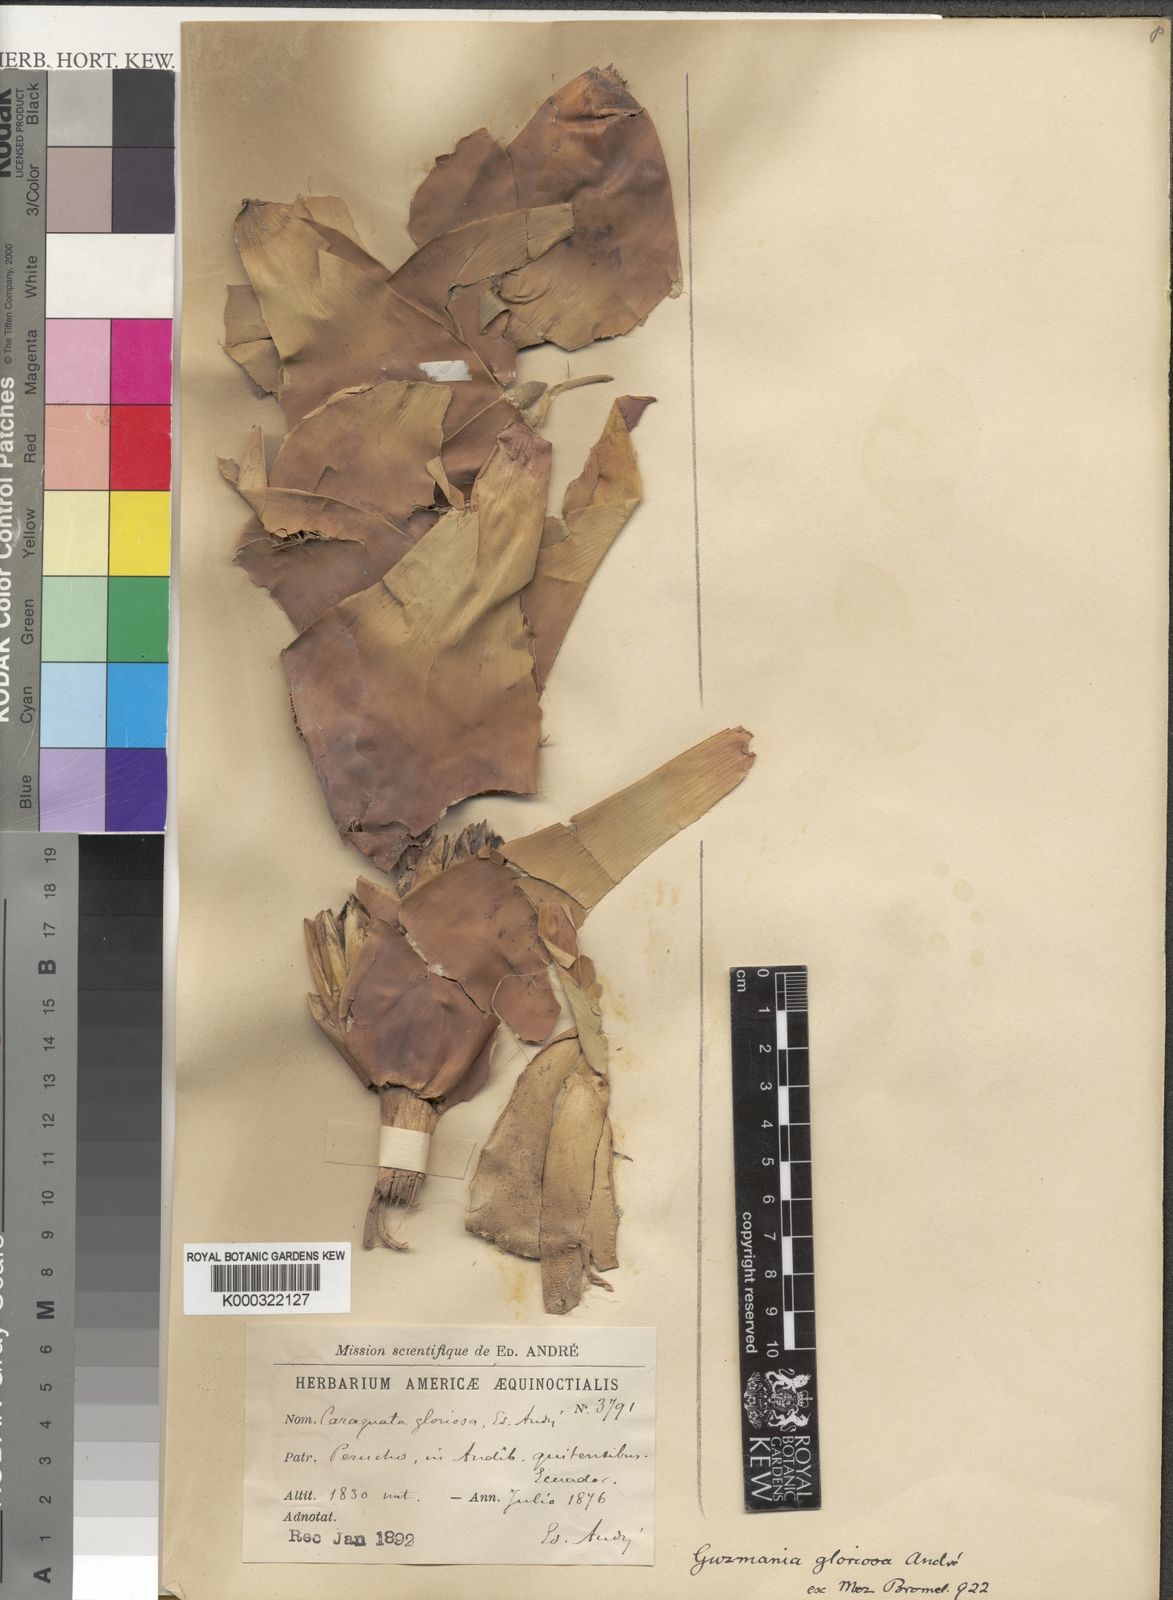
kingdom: Plantae
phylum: Tracheophyta
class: Liliopsida
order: Poales
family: Bromeliaceae
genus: Guzmania
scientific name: Guzmania gloriosa
